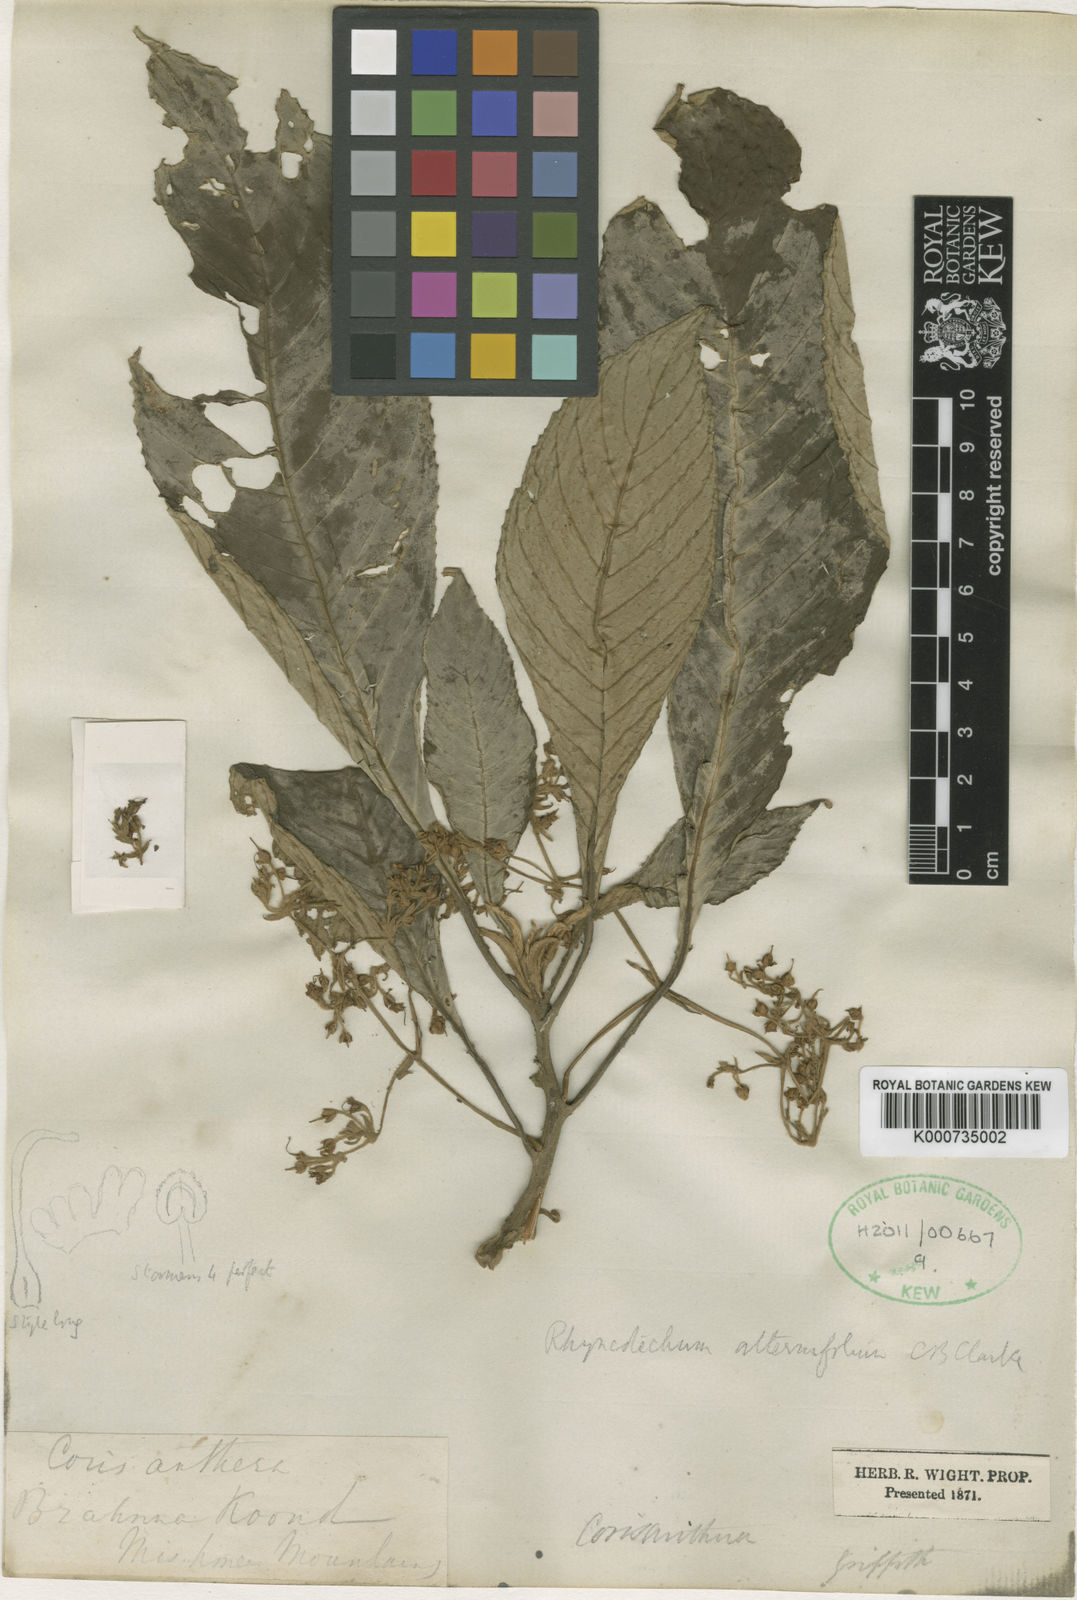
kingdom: Plantae
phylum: Tracheophyta
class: Magnoliopsida
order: Lamiales
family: Gesneriaceae
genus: Rhynchotechum
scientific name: Rhynchotechum alternifolium
